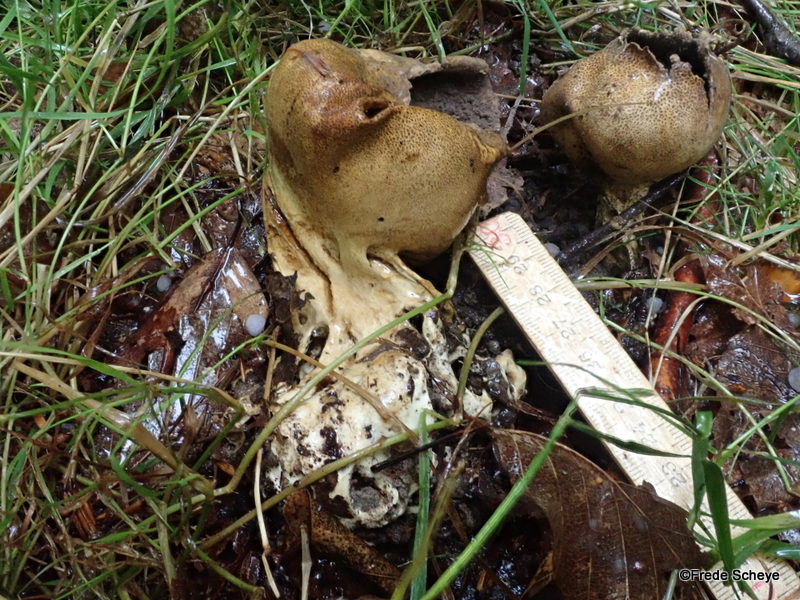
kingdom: Fungi
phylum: Basidiomycota
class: Agaricomycetes
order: Boletales
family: Sclerodermataceae
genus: Scleroderma
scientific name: Scleroderma verrucosum
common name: stilket bruskbold
